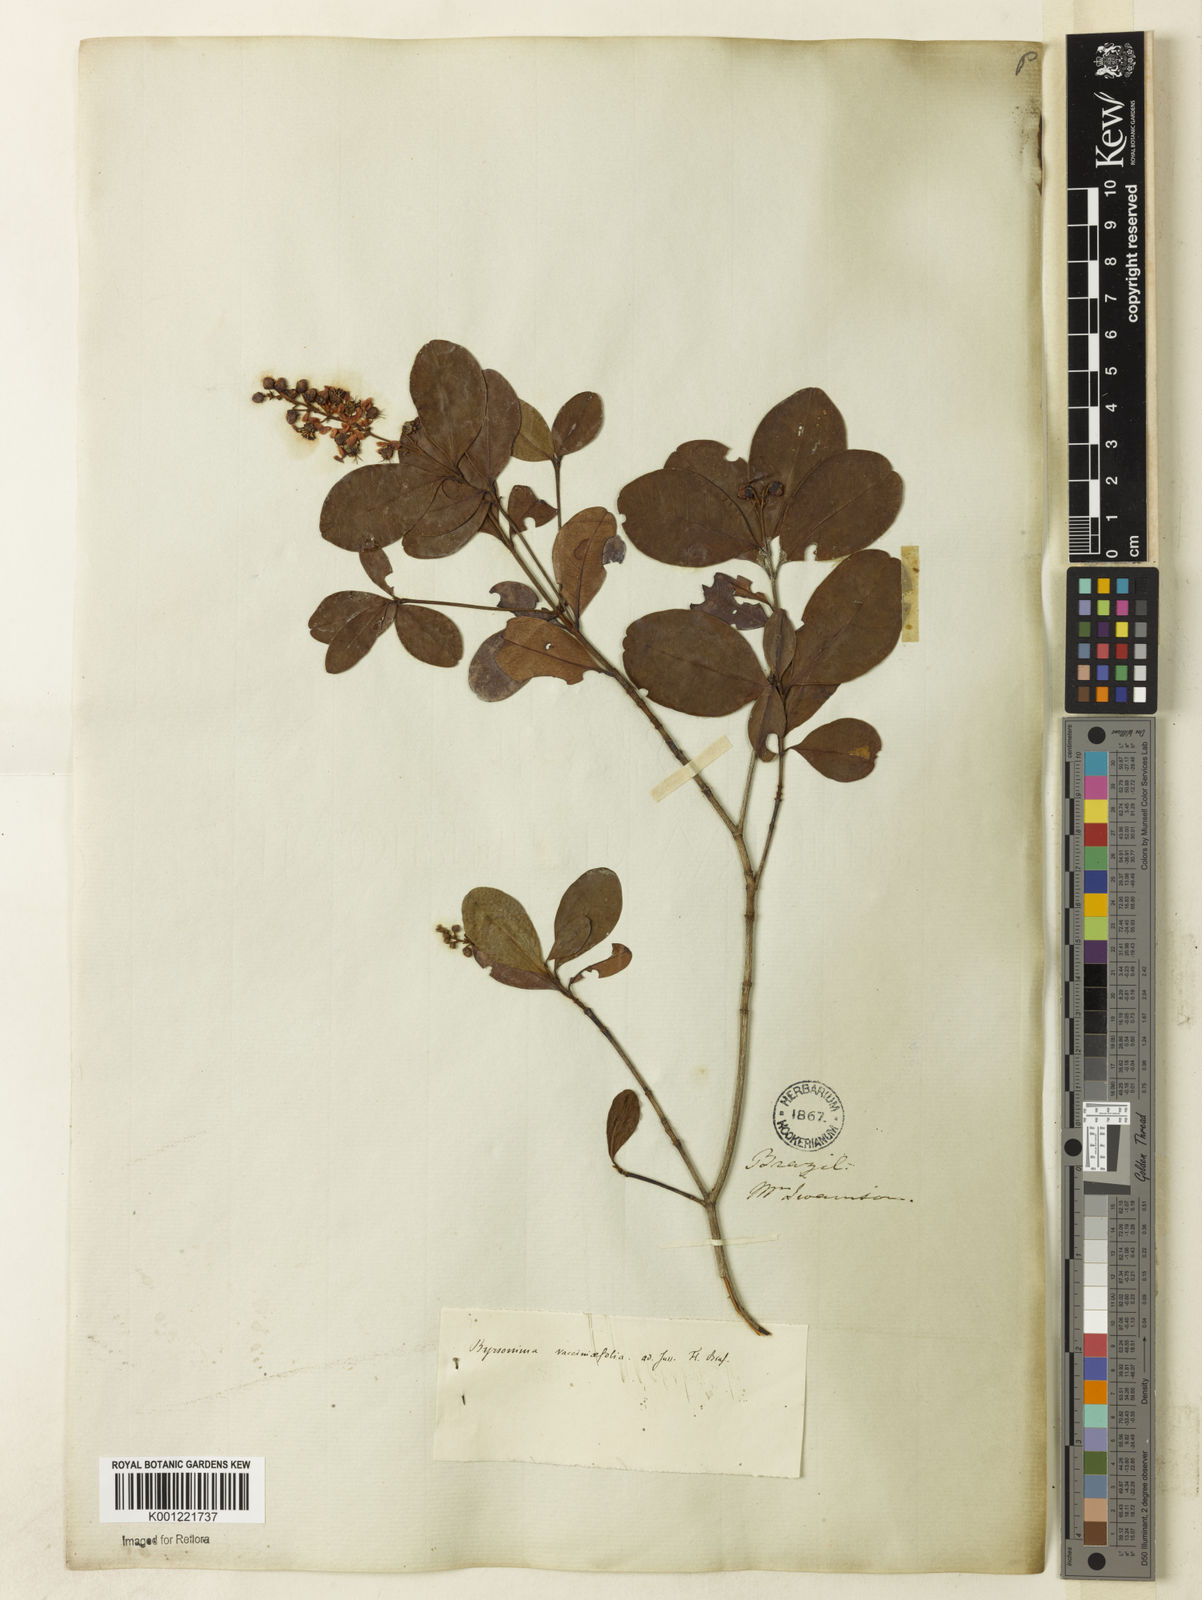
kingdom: Plantae
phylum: Tracheophyta
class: Magnoliopsida
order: Malpighiales
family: Malpighiaceae
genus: Byrsonima
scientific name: Byrsonima vacciniifolia
